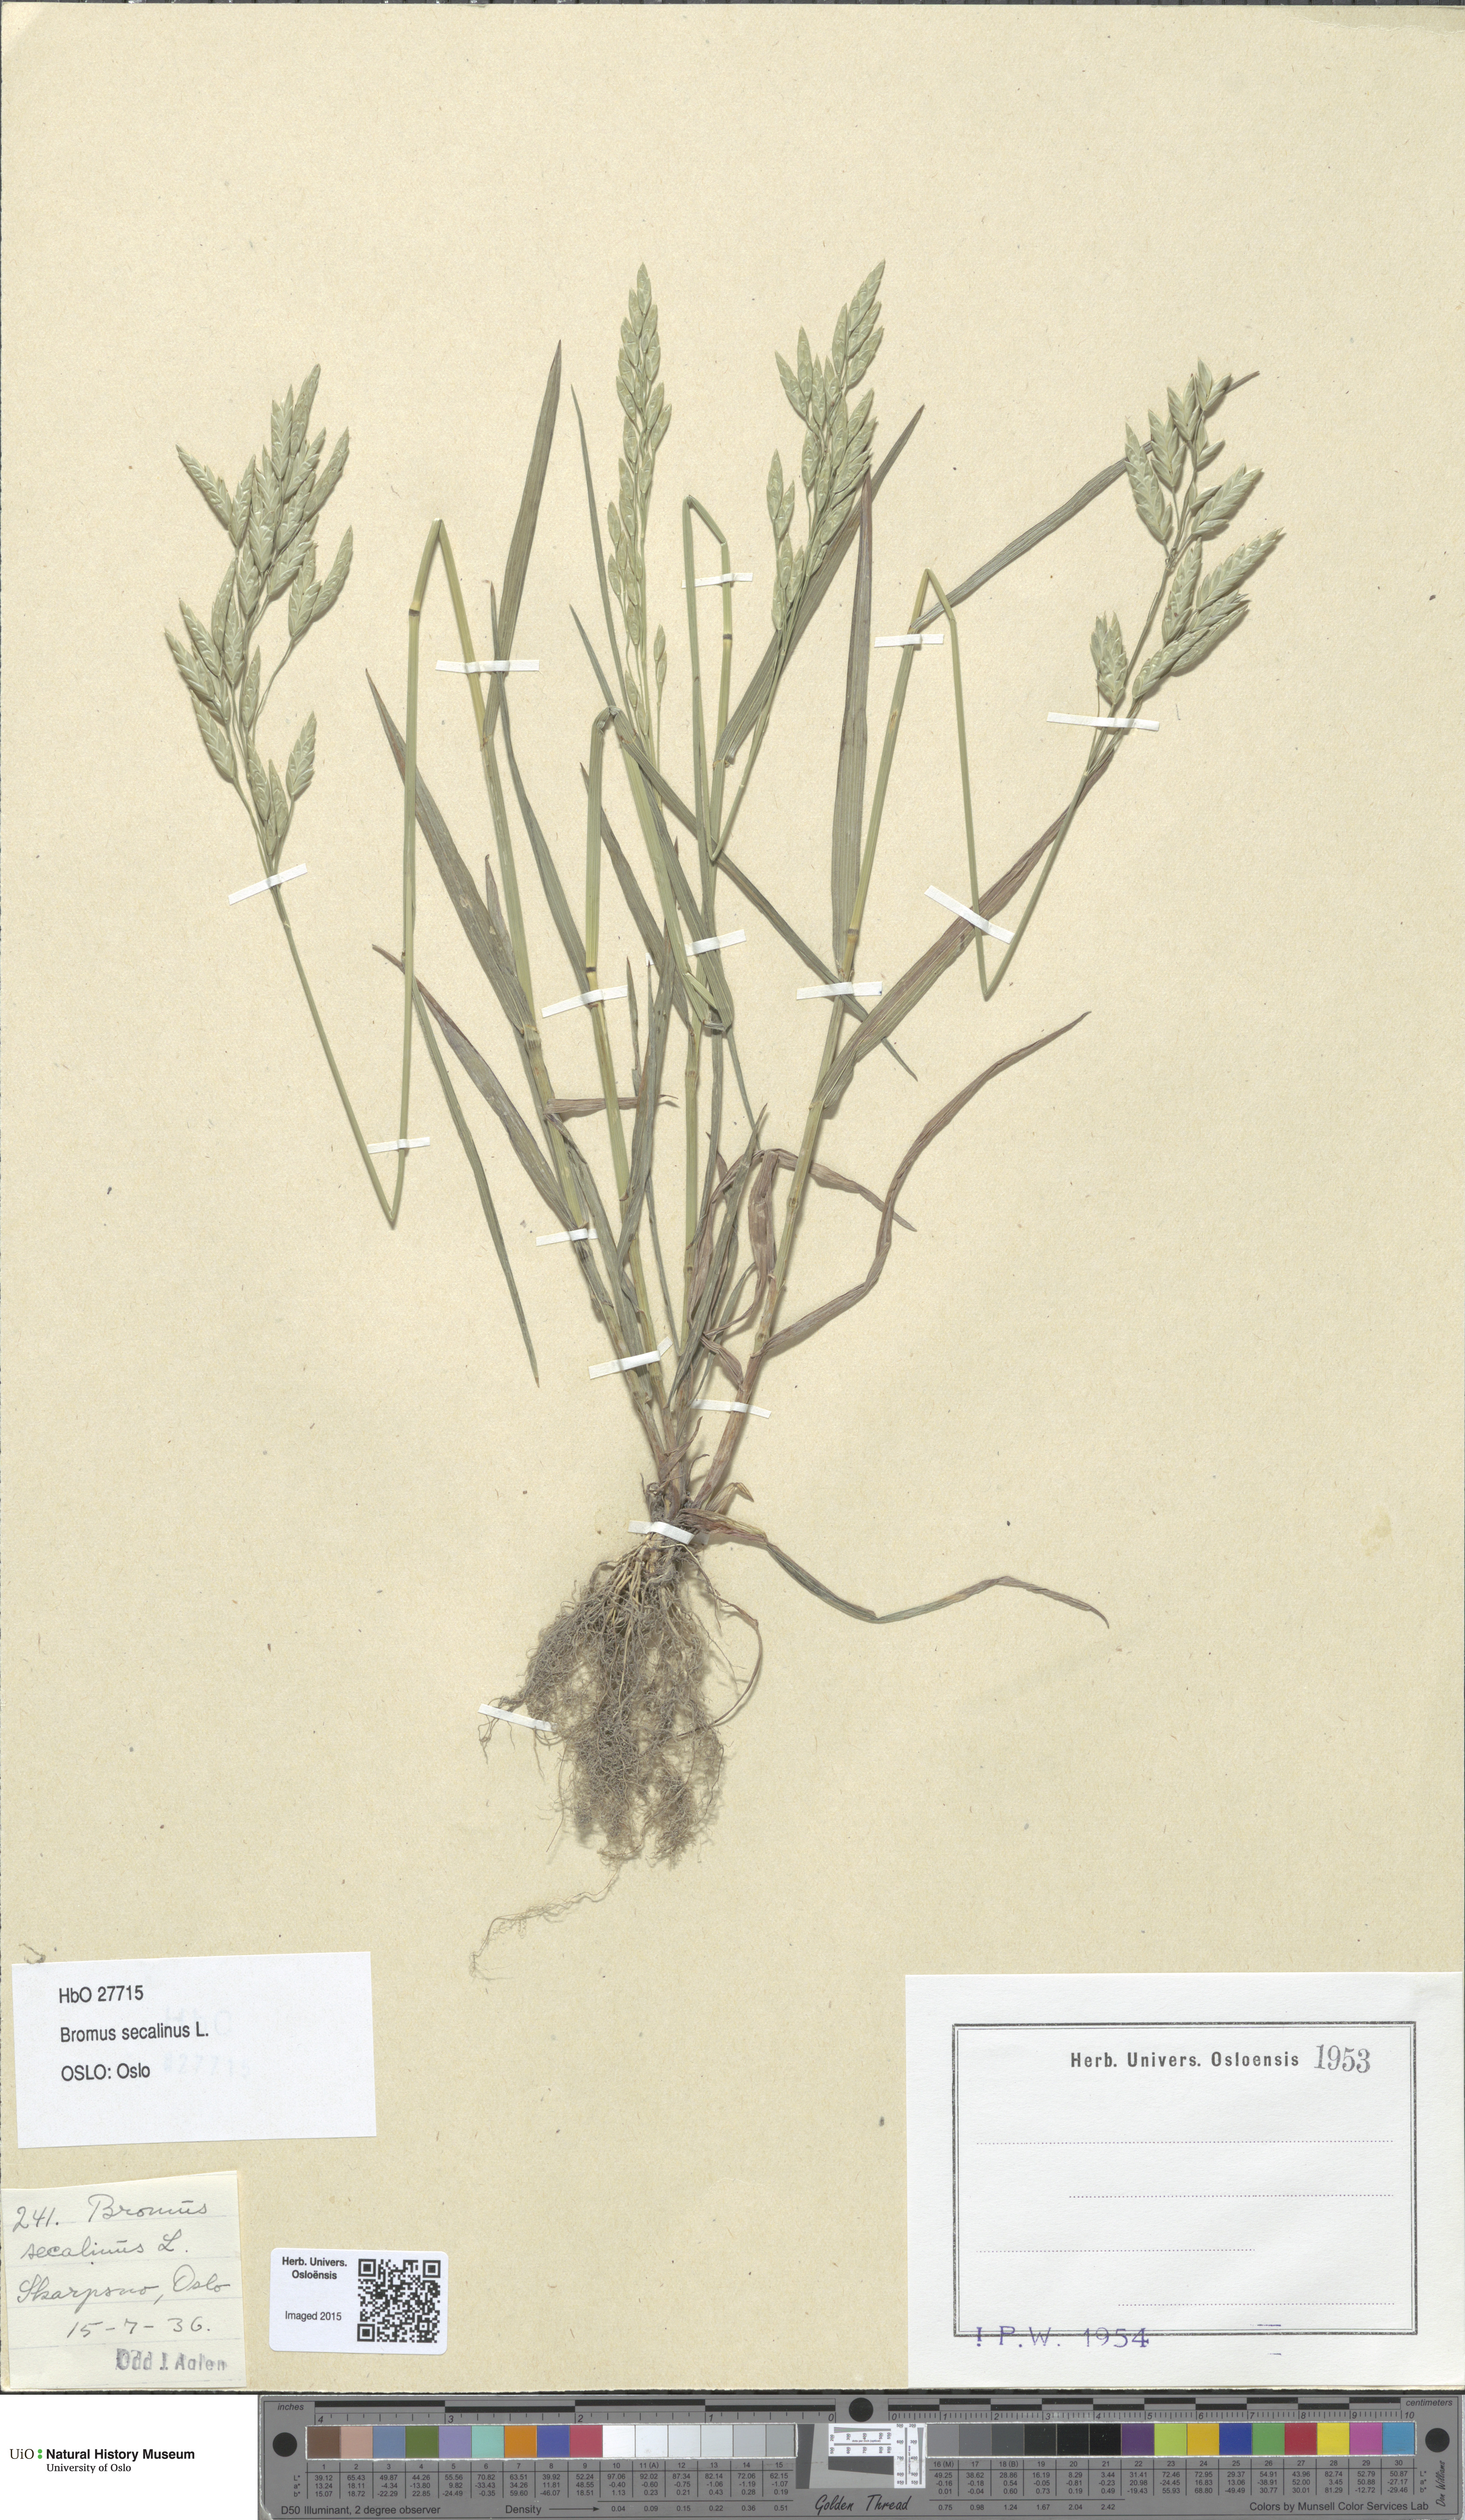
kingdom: Plantae
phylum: Tracheophyta
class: Liliopsida
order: Poales
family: Poaceae
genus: Bromus
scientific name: Bromus secalinus
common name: Rye brome
